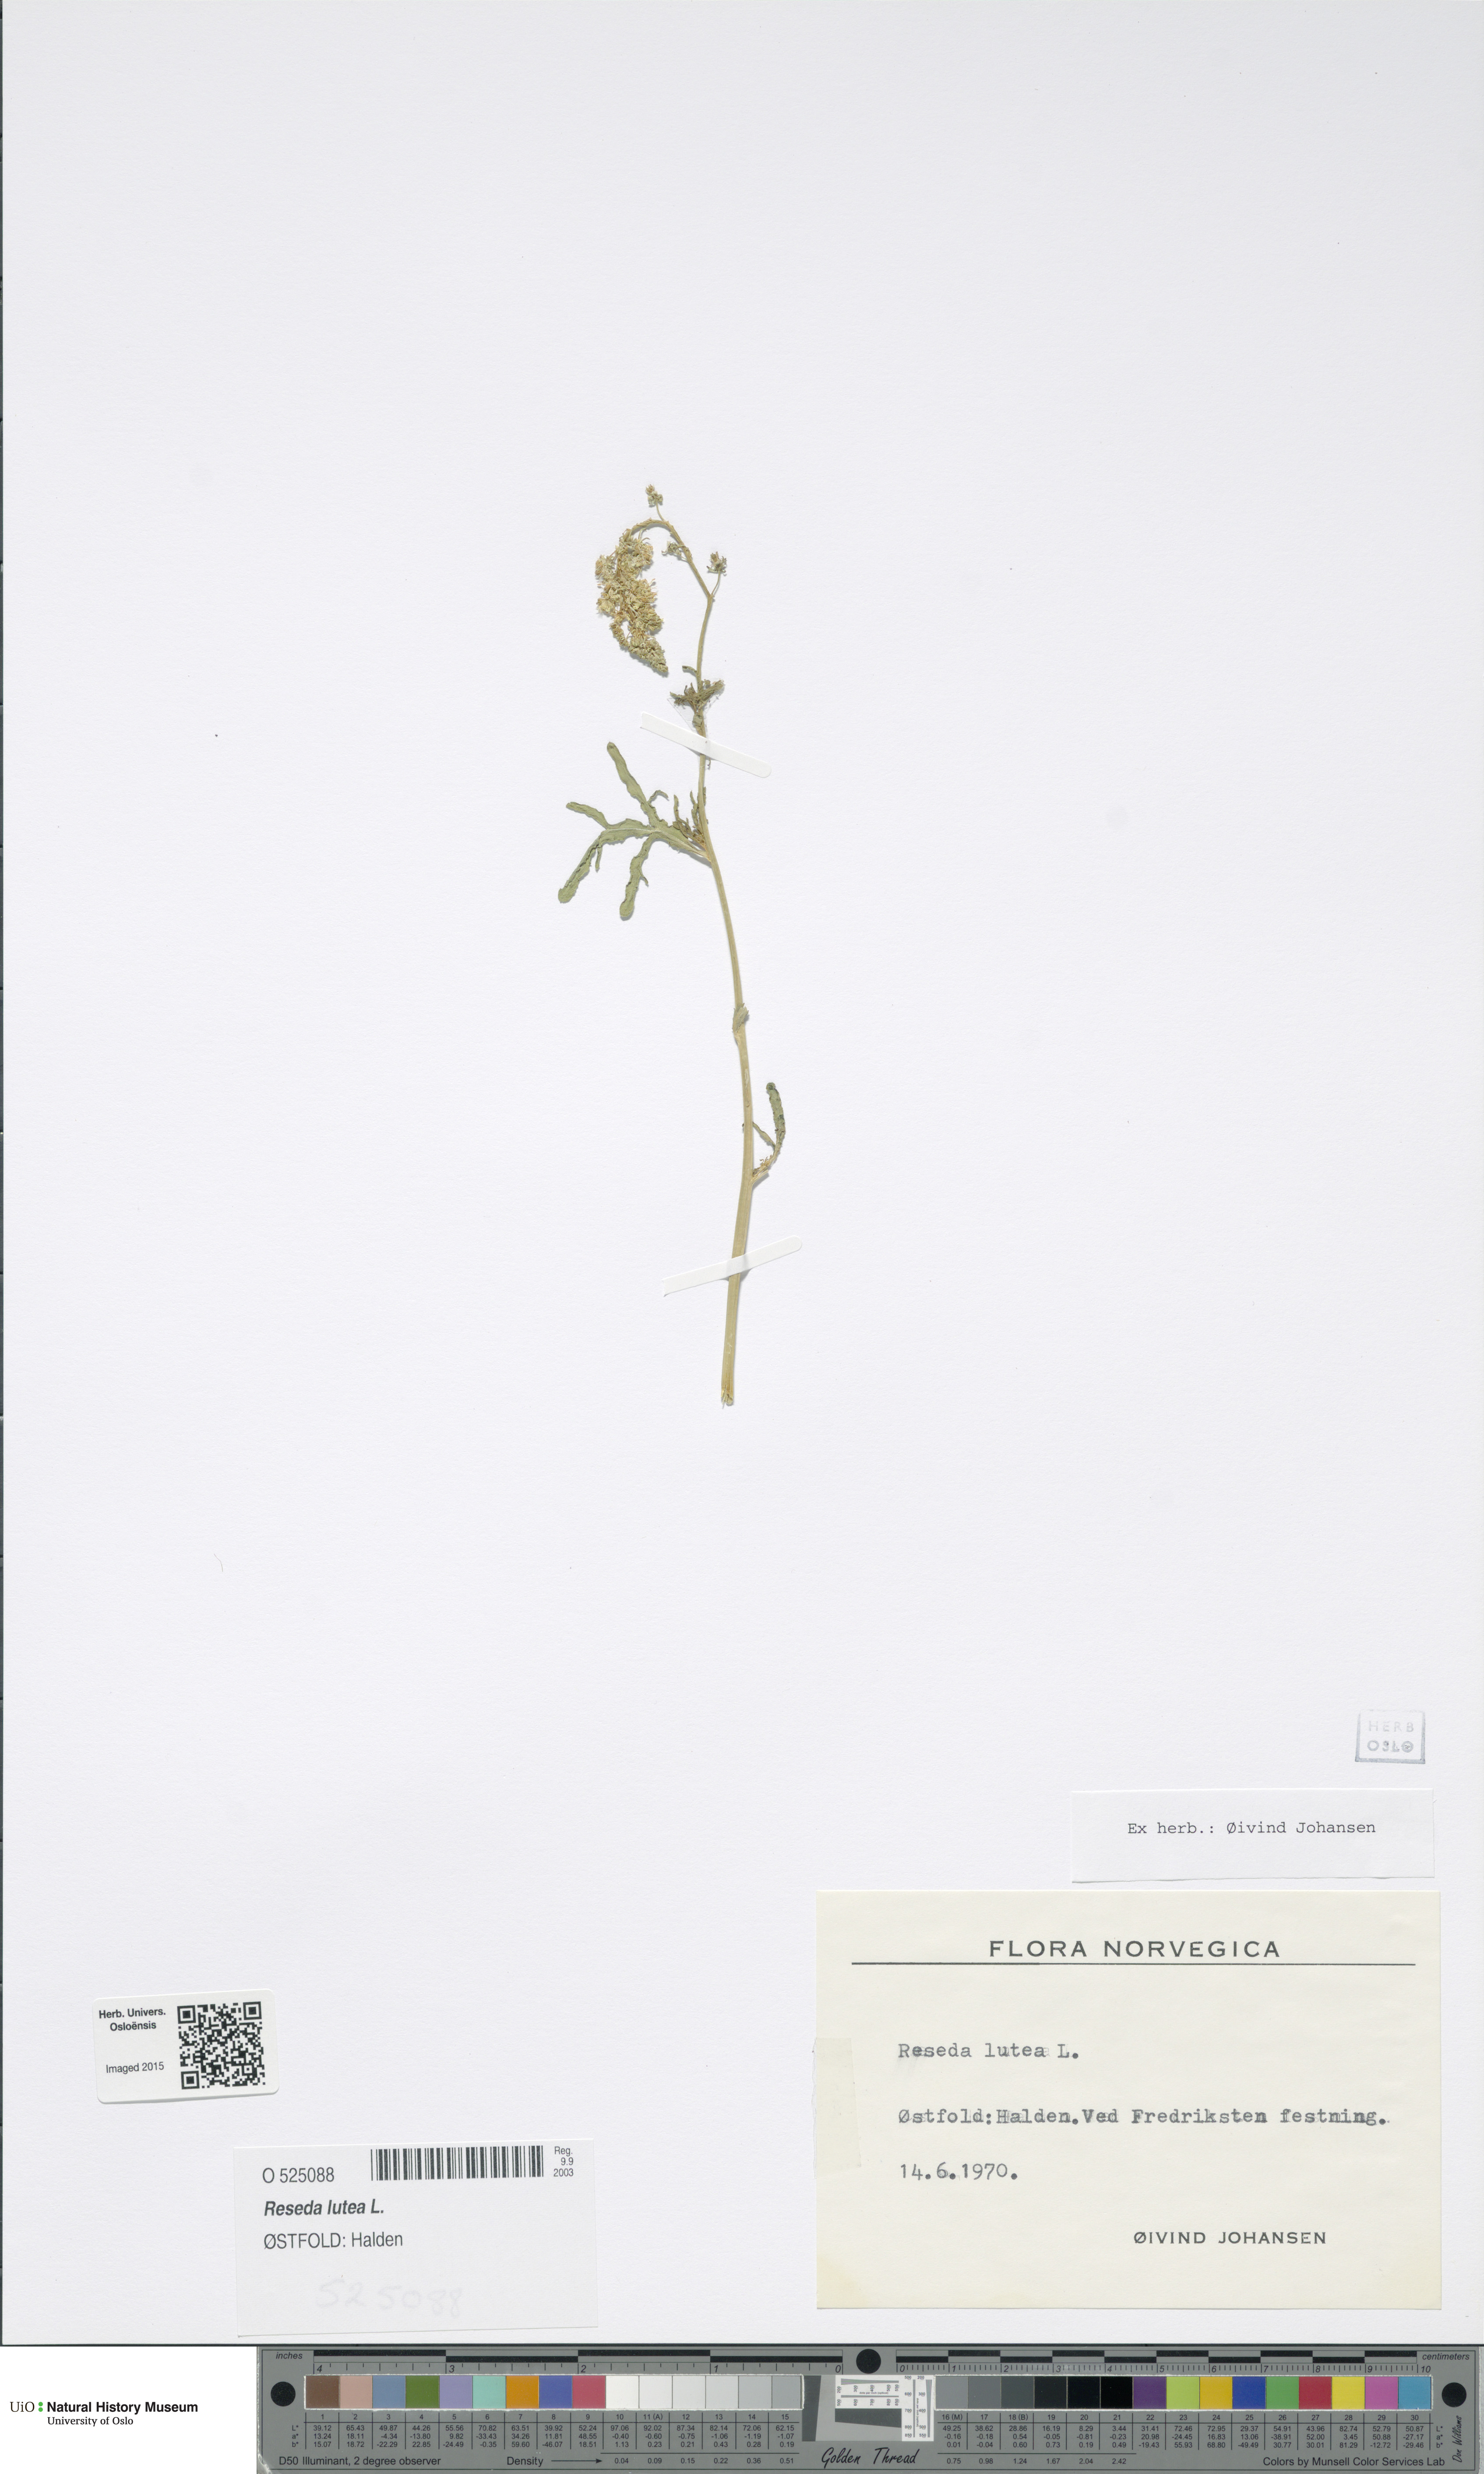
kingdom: Plantae
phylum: Tracheophyta
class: Magnoliopsida
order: Brassicales
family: Resedaceae
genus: Reseda
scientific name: Reseda lutea
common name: Wild mignonette
